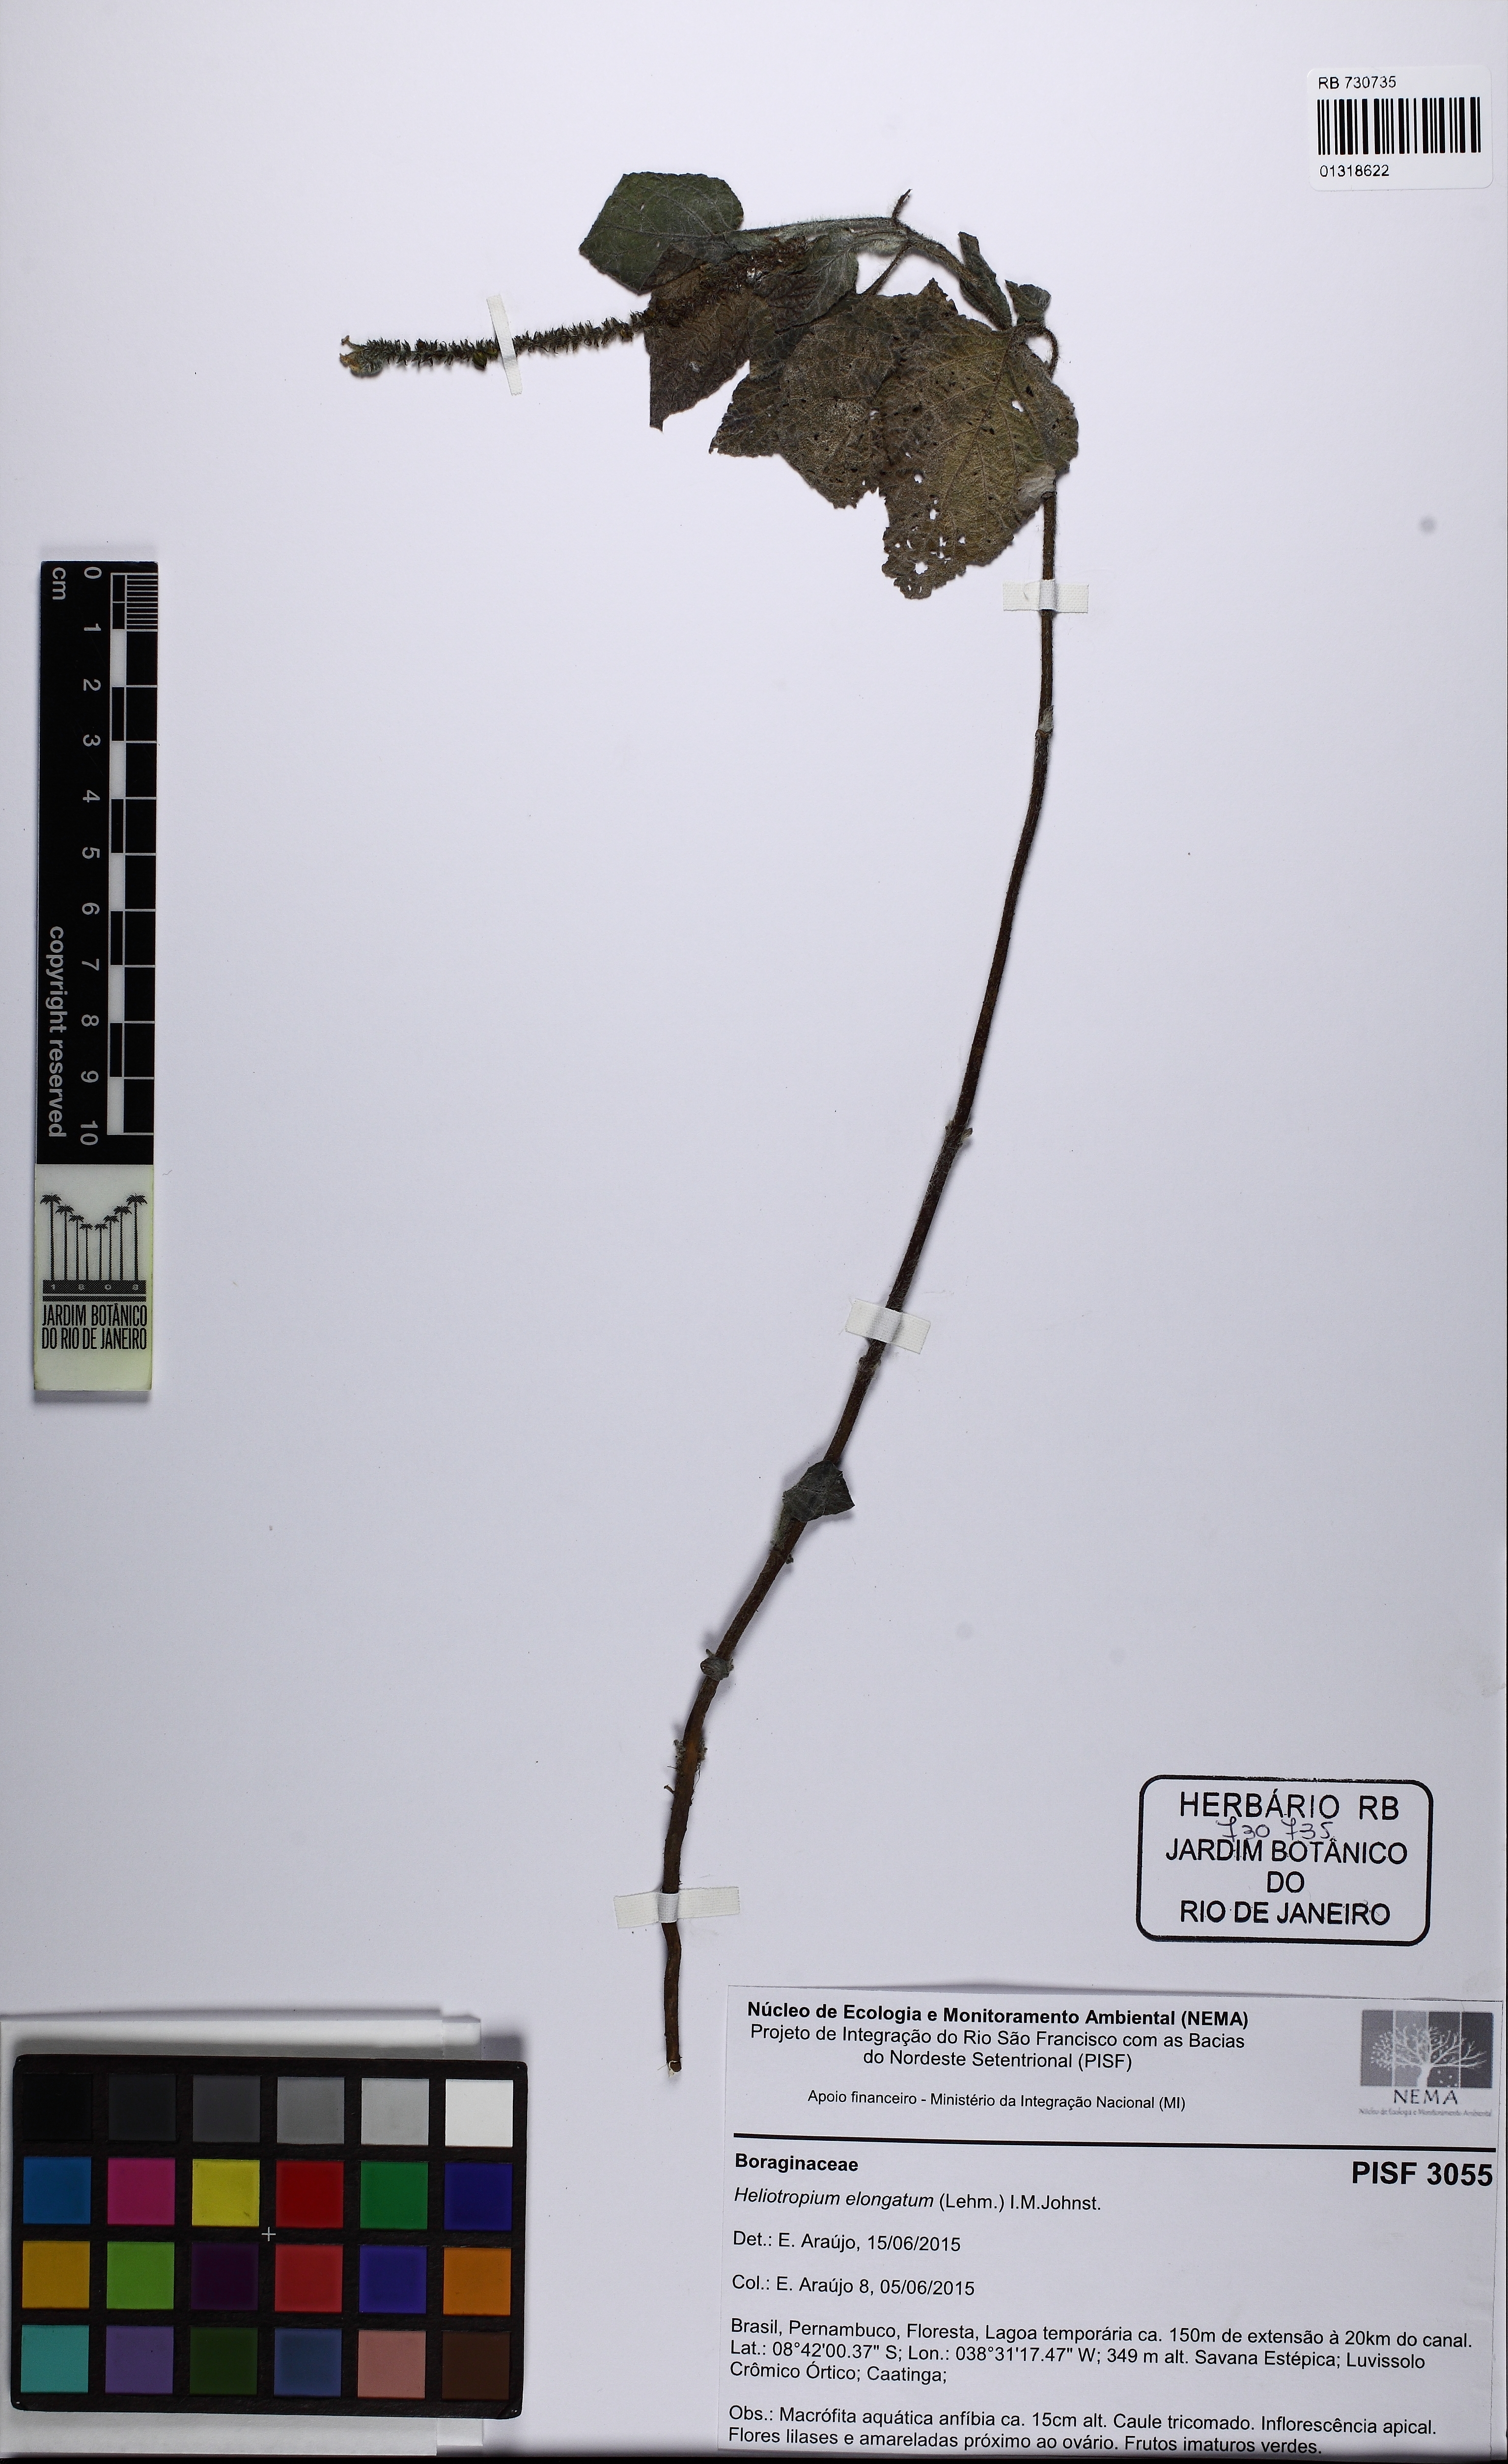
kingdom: Plantae
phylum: Tracheophyta
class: Magnoliopsida
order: Boraginales
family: Heliotropiaceae
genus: Heliotropium
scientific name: Heliotropium elongatum
